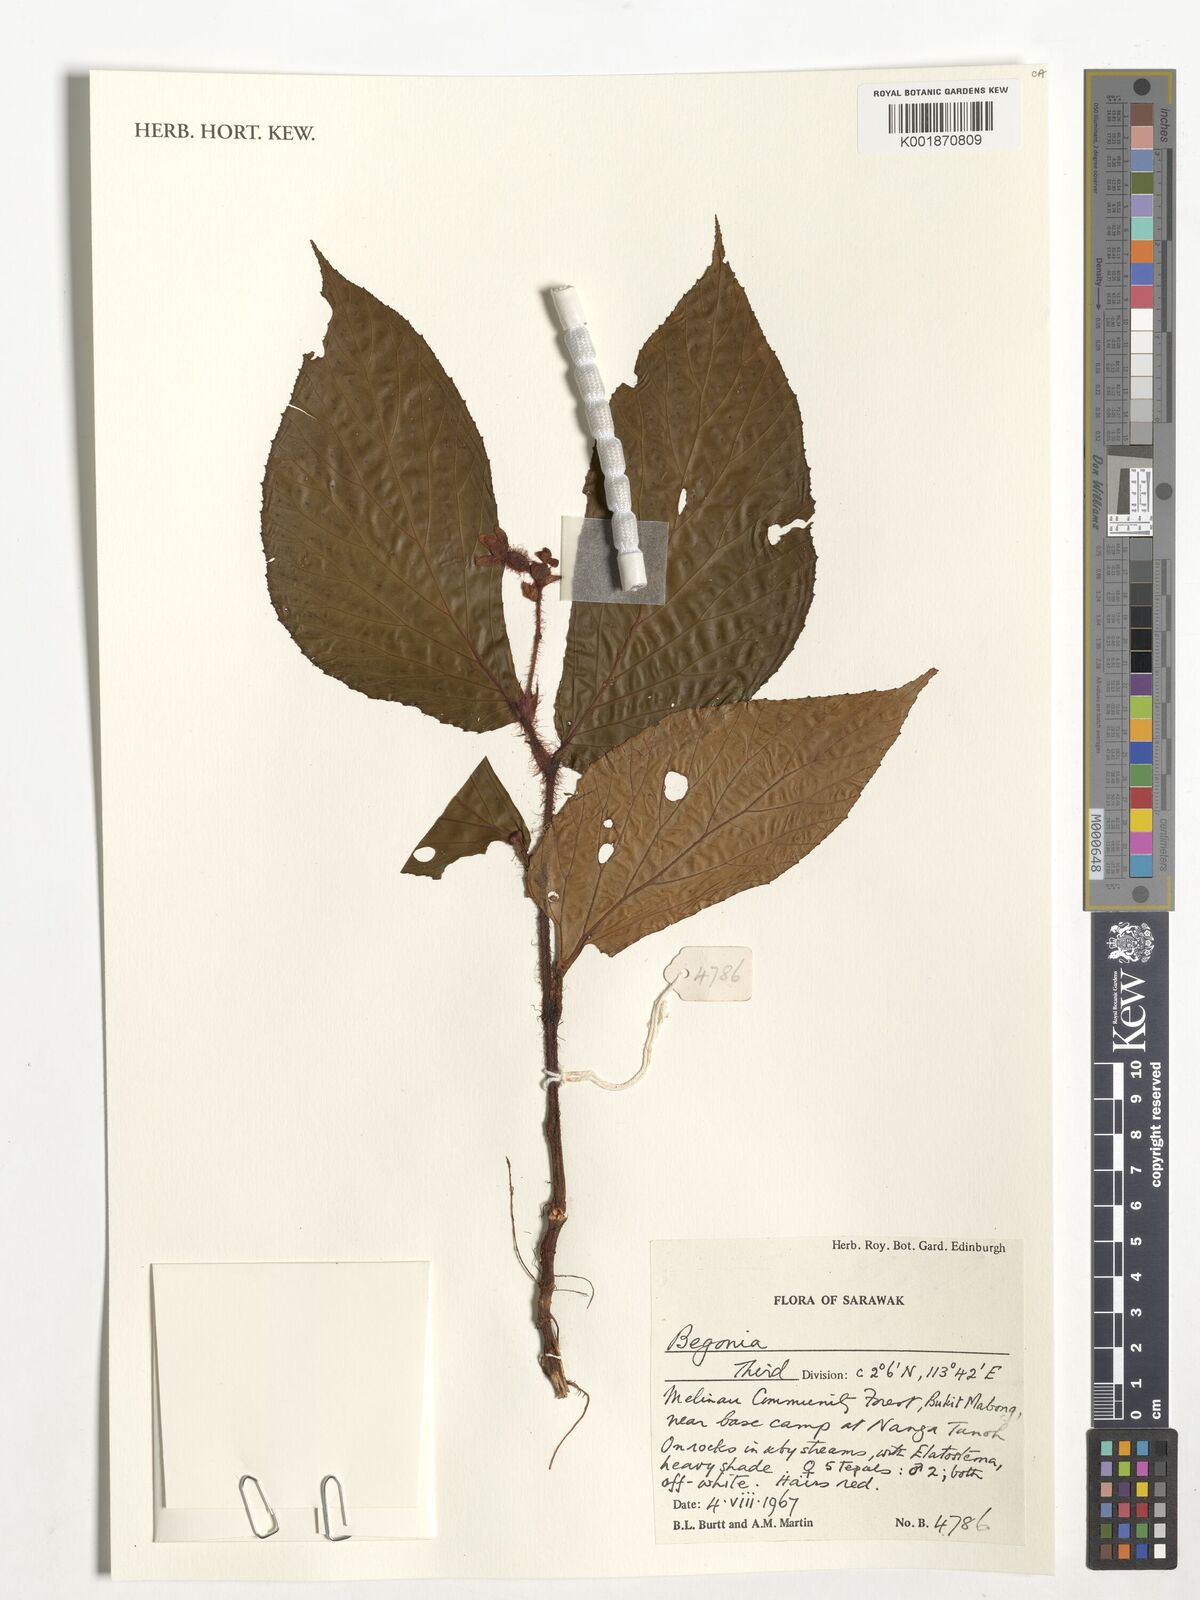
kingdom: Plantae
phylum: Tracheophyta
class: Magnoliopsida
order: Cucurbitales
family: Begoniaceae
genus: Begonia
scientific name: Begonia
